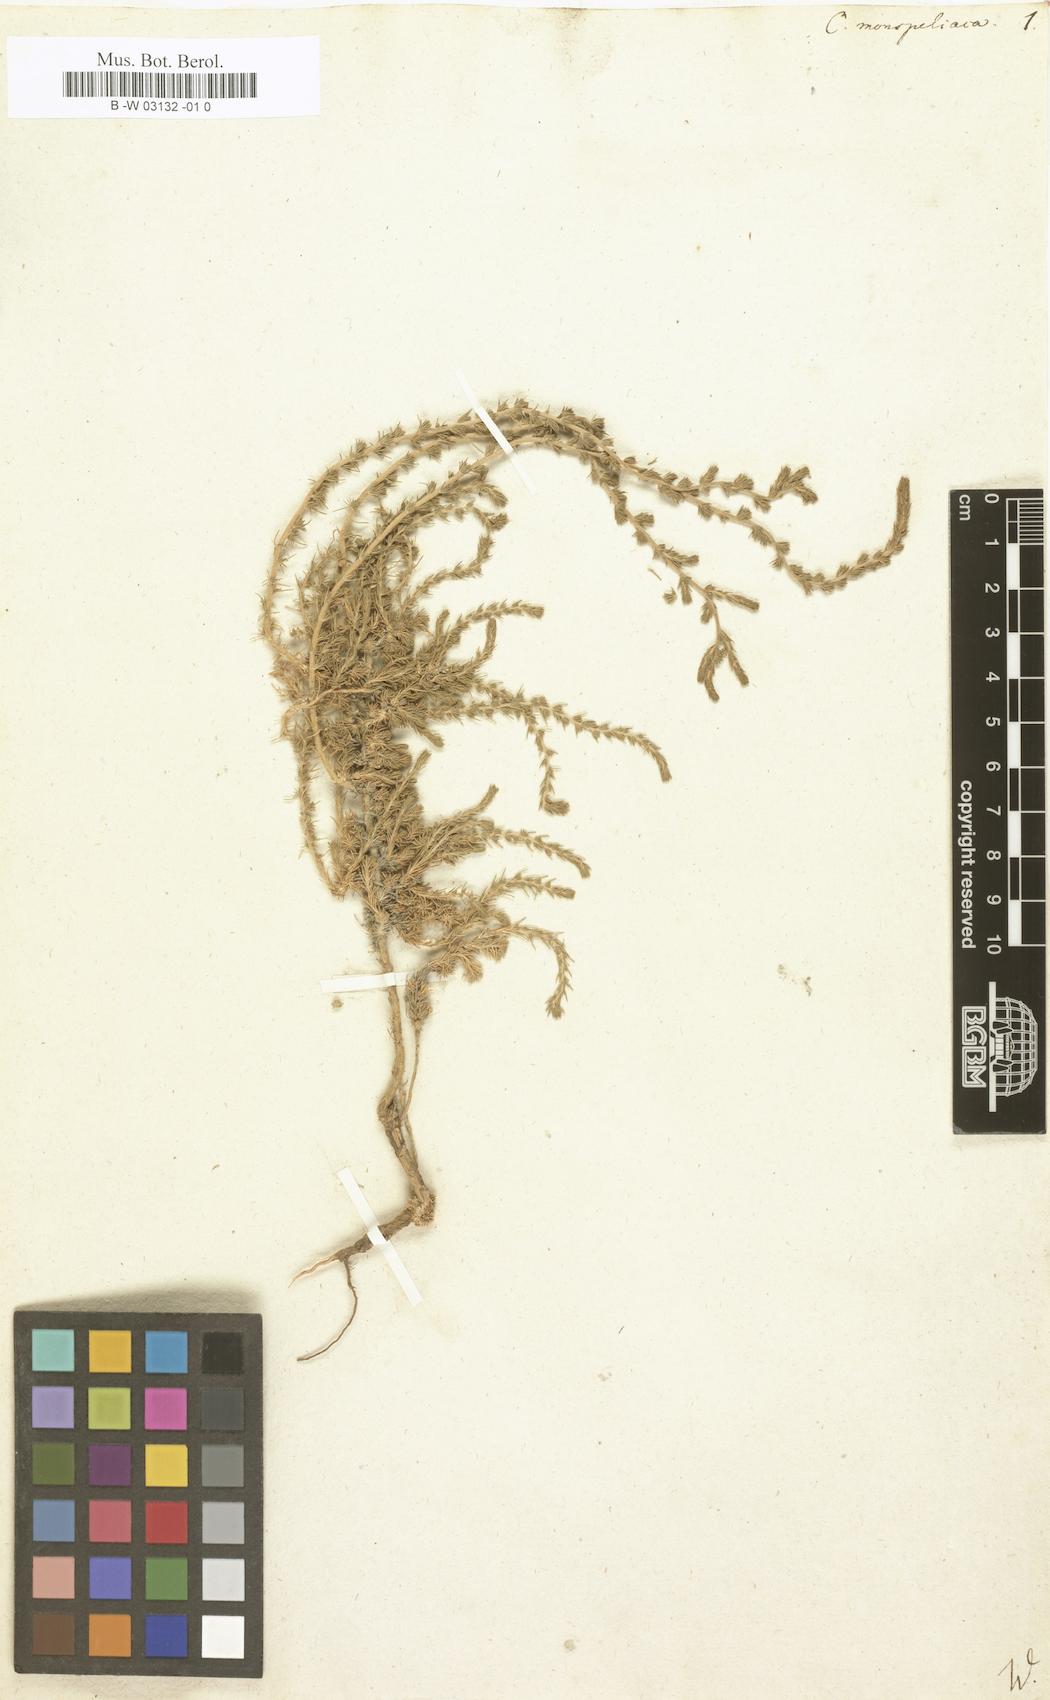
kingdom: Plantae
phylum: Tracheophyta
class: Magnoliopsida
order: Caryophyllales
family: Amaranthaceae
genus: Camphorosma
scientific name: Camphorosma monspeliaca
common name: Camphorfume
